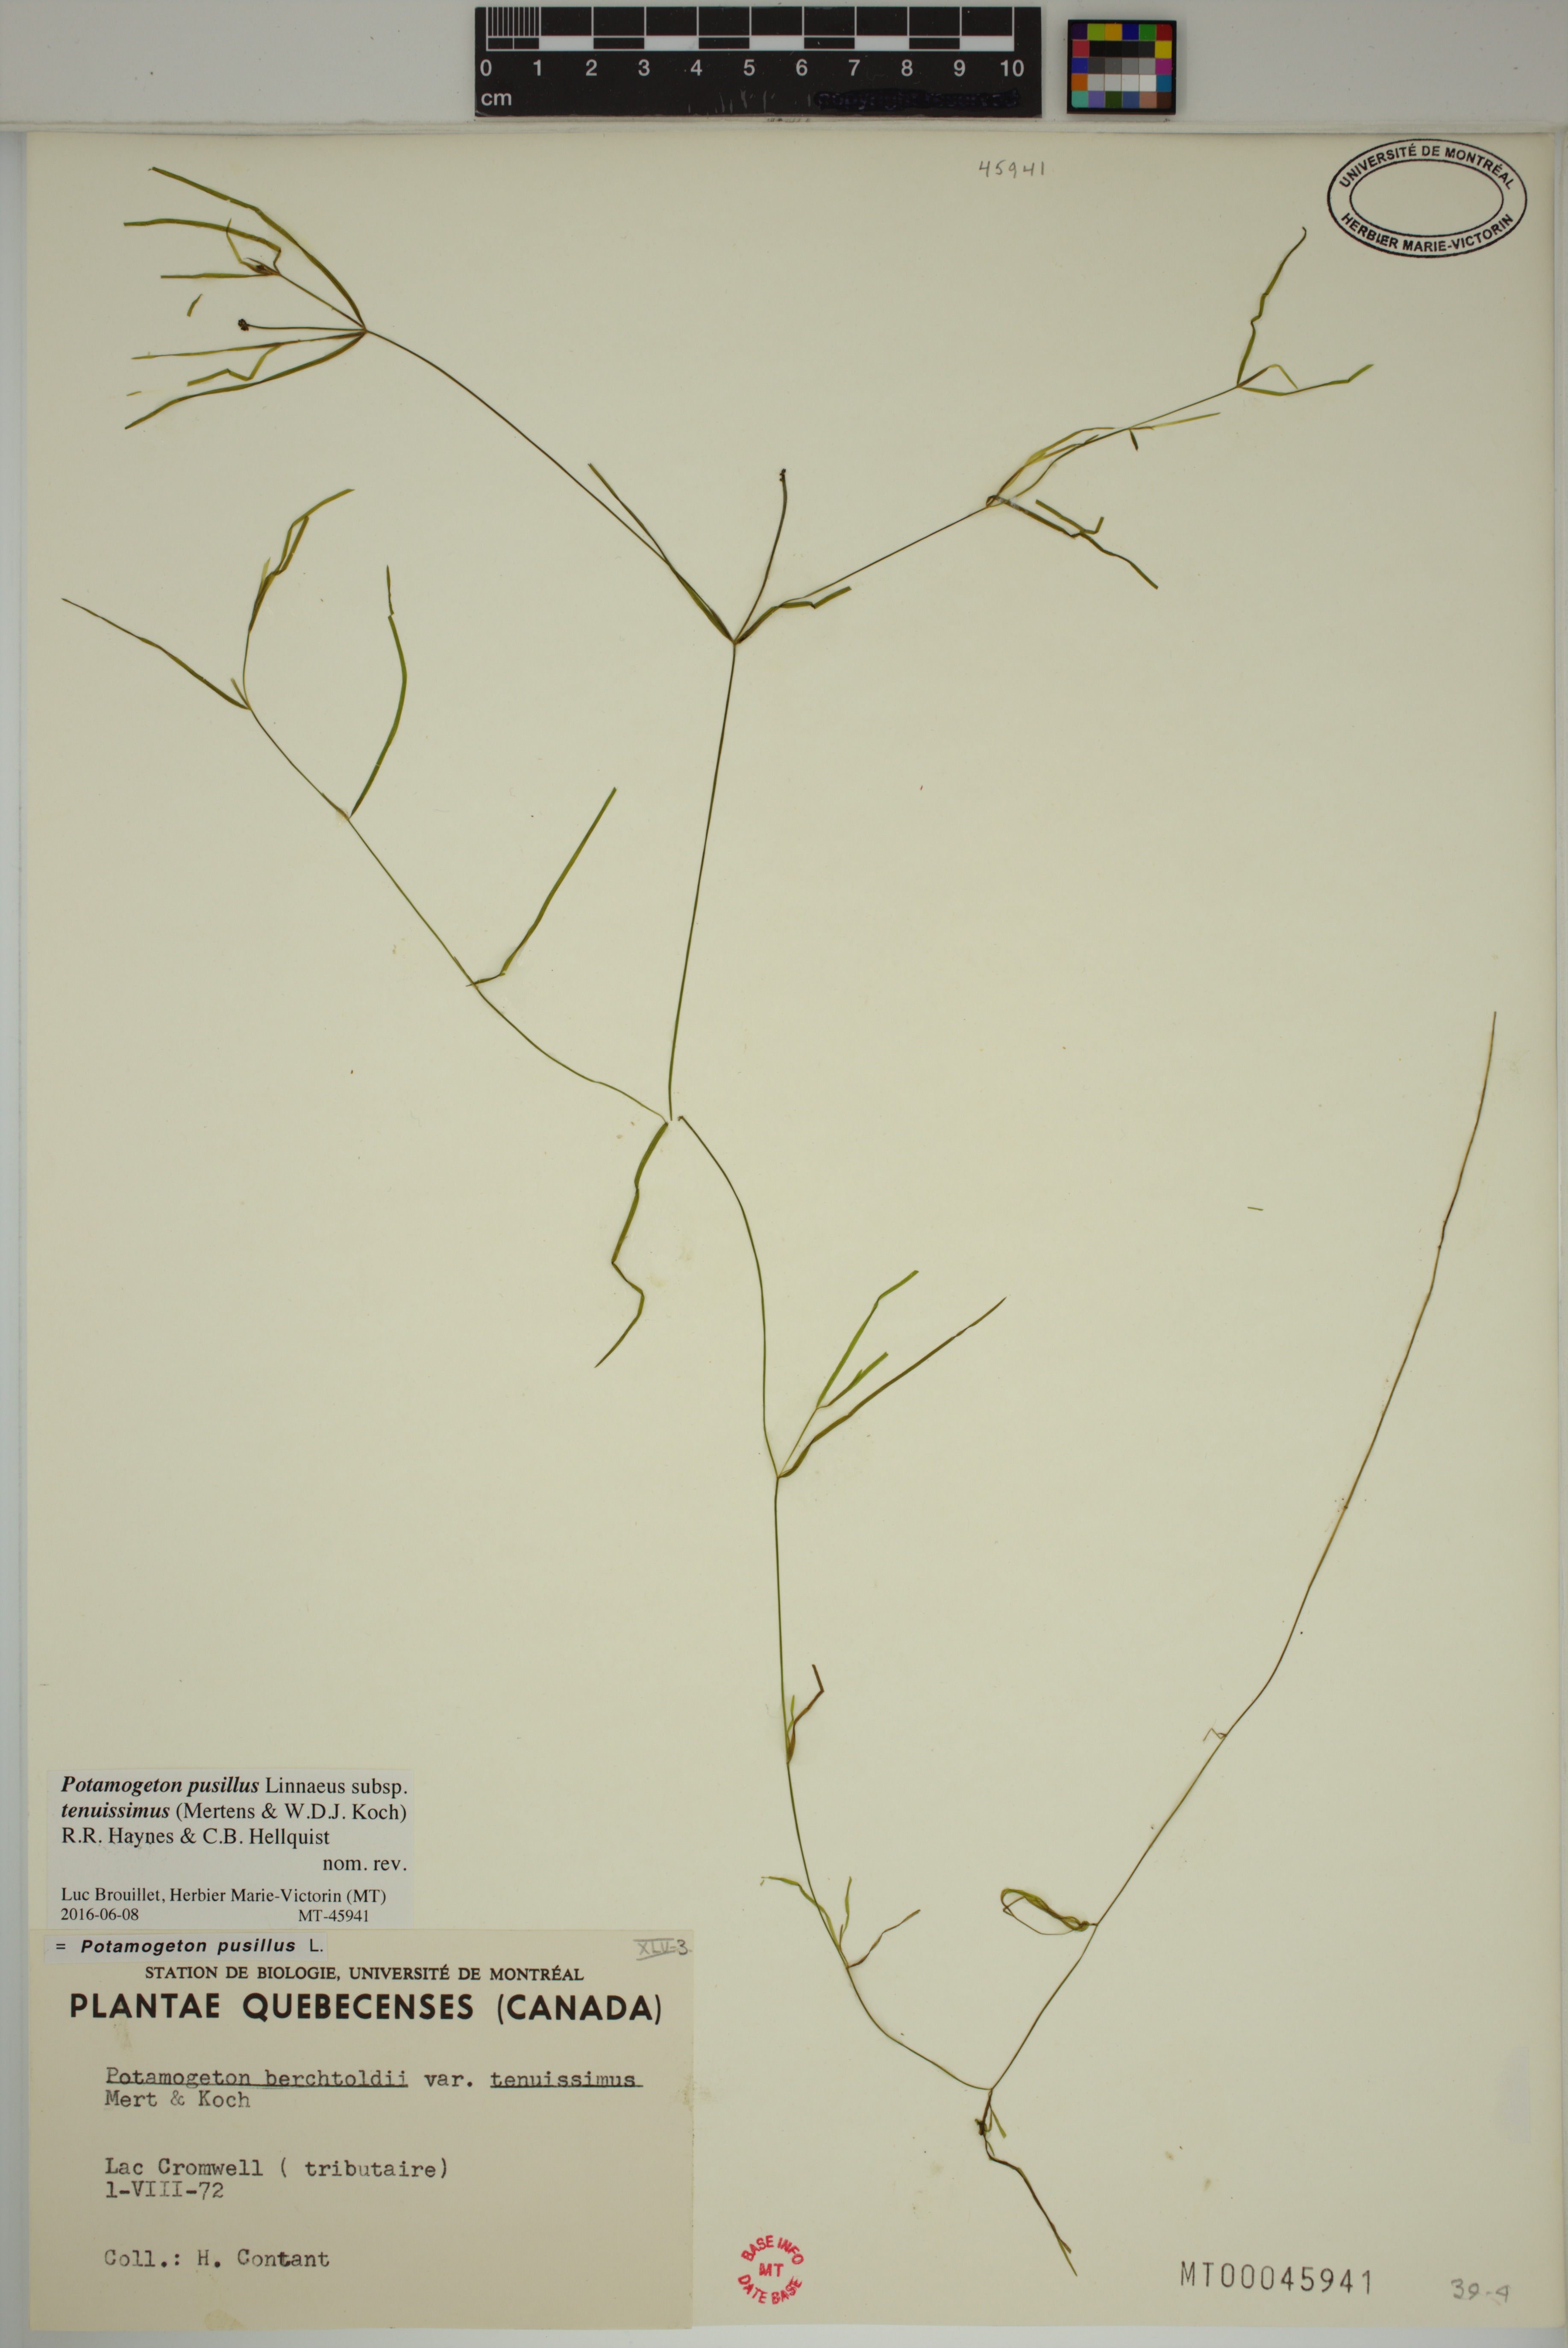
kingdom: Plantae
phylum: Tracheophyta
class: Liliopsida
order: Alismatales
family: Potamogetonaceae
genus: Potamogeton
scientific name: Potamogeton berchtoldii
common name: Small pondweed
